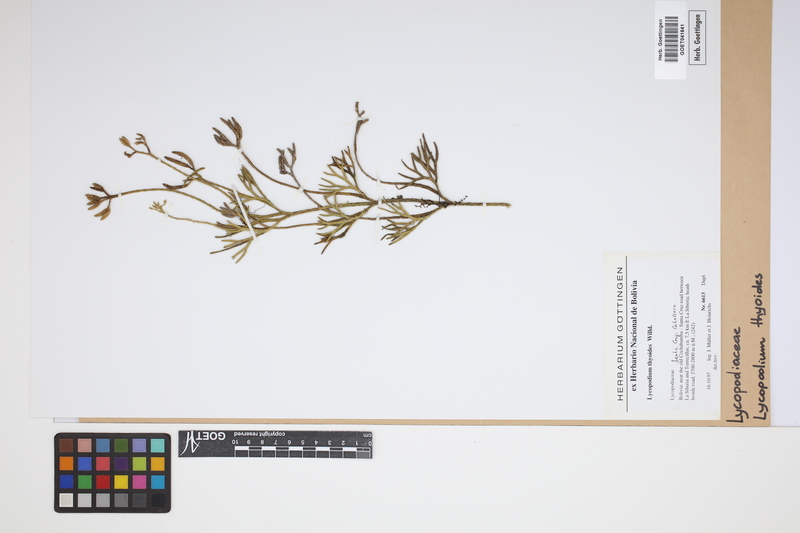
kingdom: Plantae
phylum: Tracheophyta
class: Lycopodiopsida
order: Lycopodiales
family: Lycopodiaceae
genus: Diphasiastrum
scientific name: Diphasiastrum thyoides
